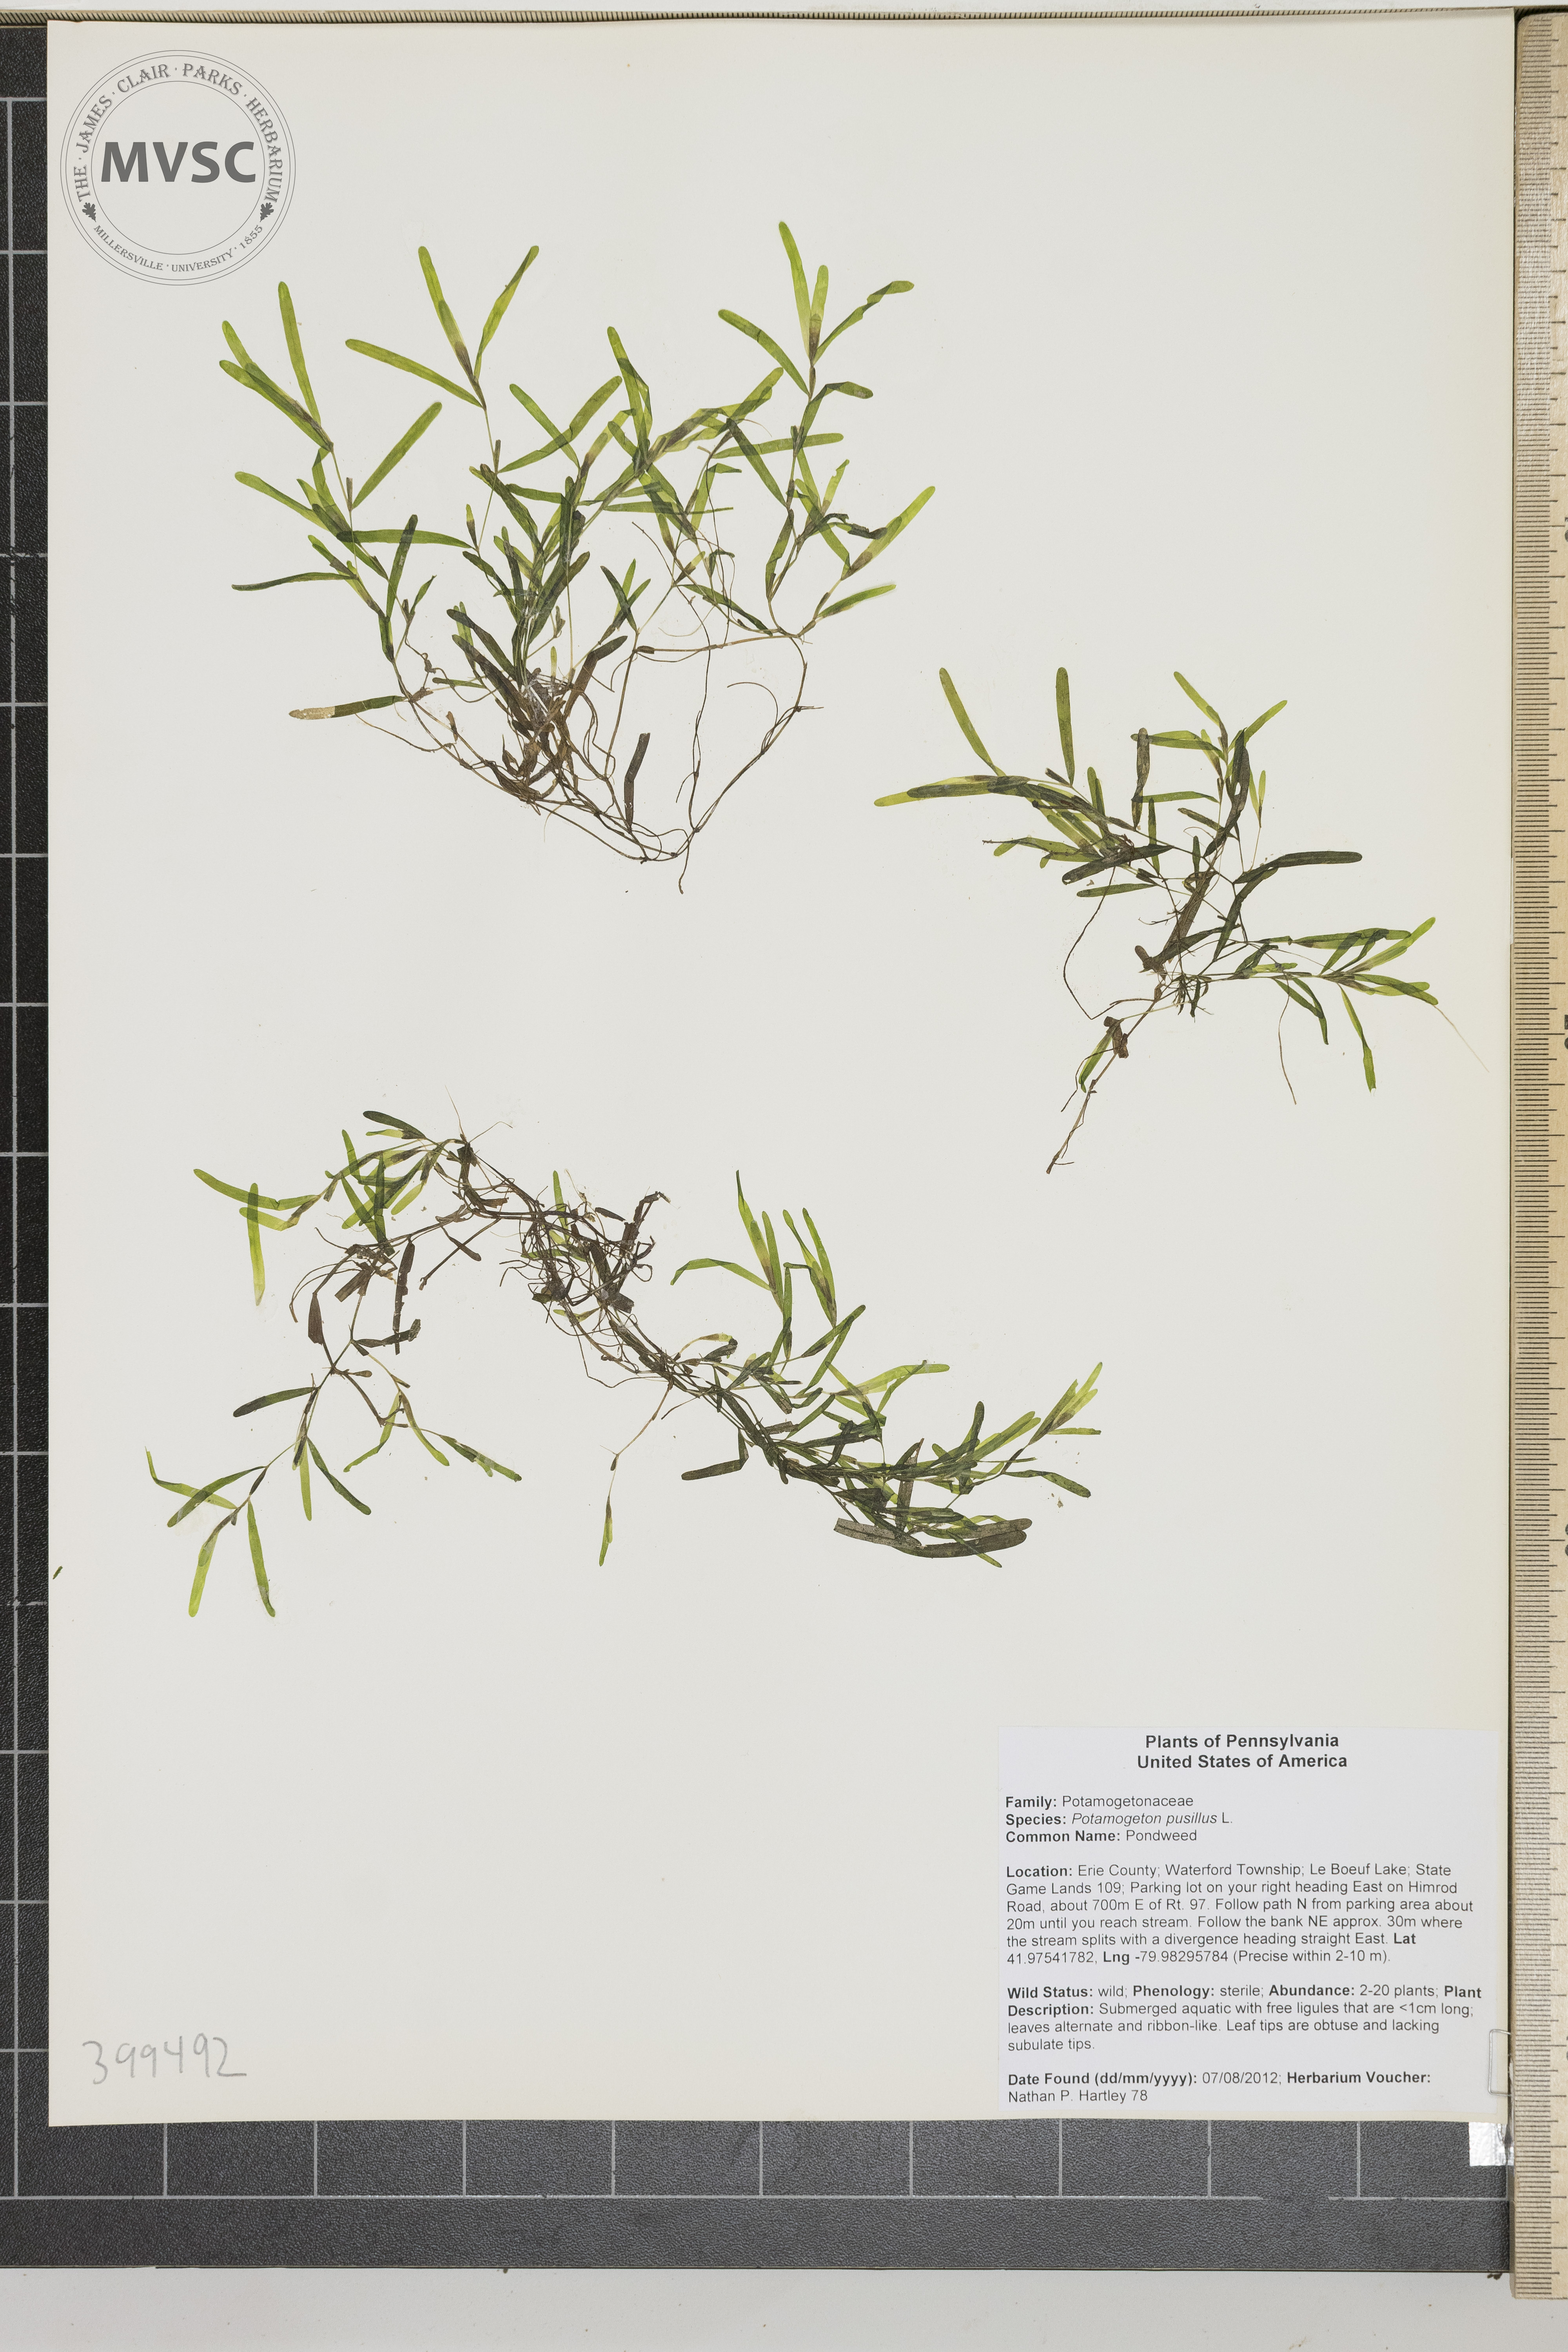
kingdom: Plantae
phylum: Tracheophyta
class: Liliopsida
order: Alismatales
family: Potamogetonaceae
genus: Potamogeton
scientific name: Potamogeton pusillus
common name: Lesser pondweed
